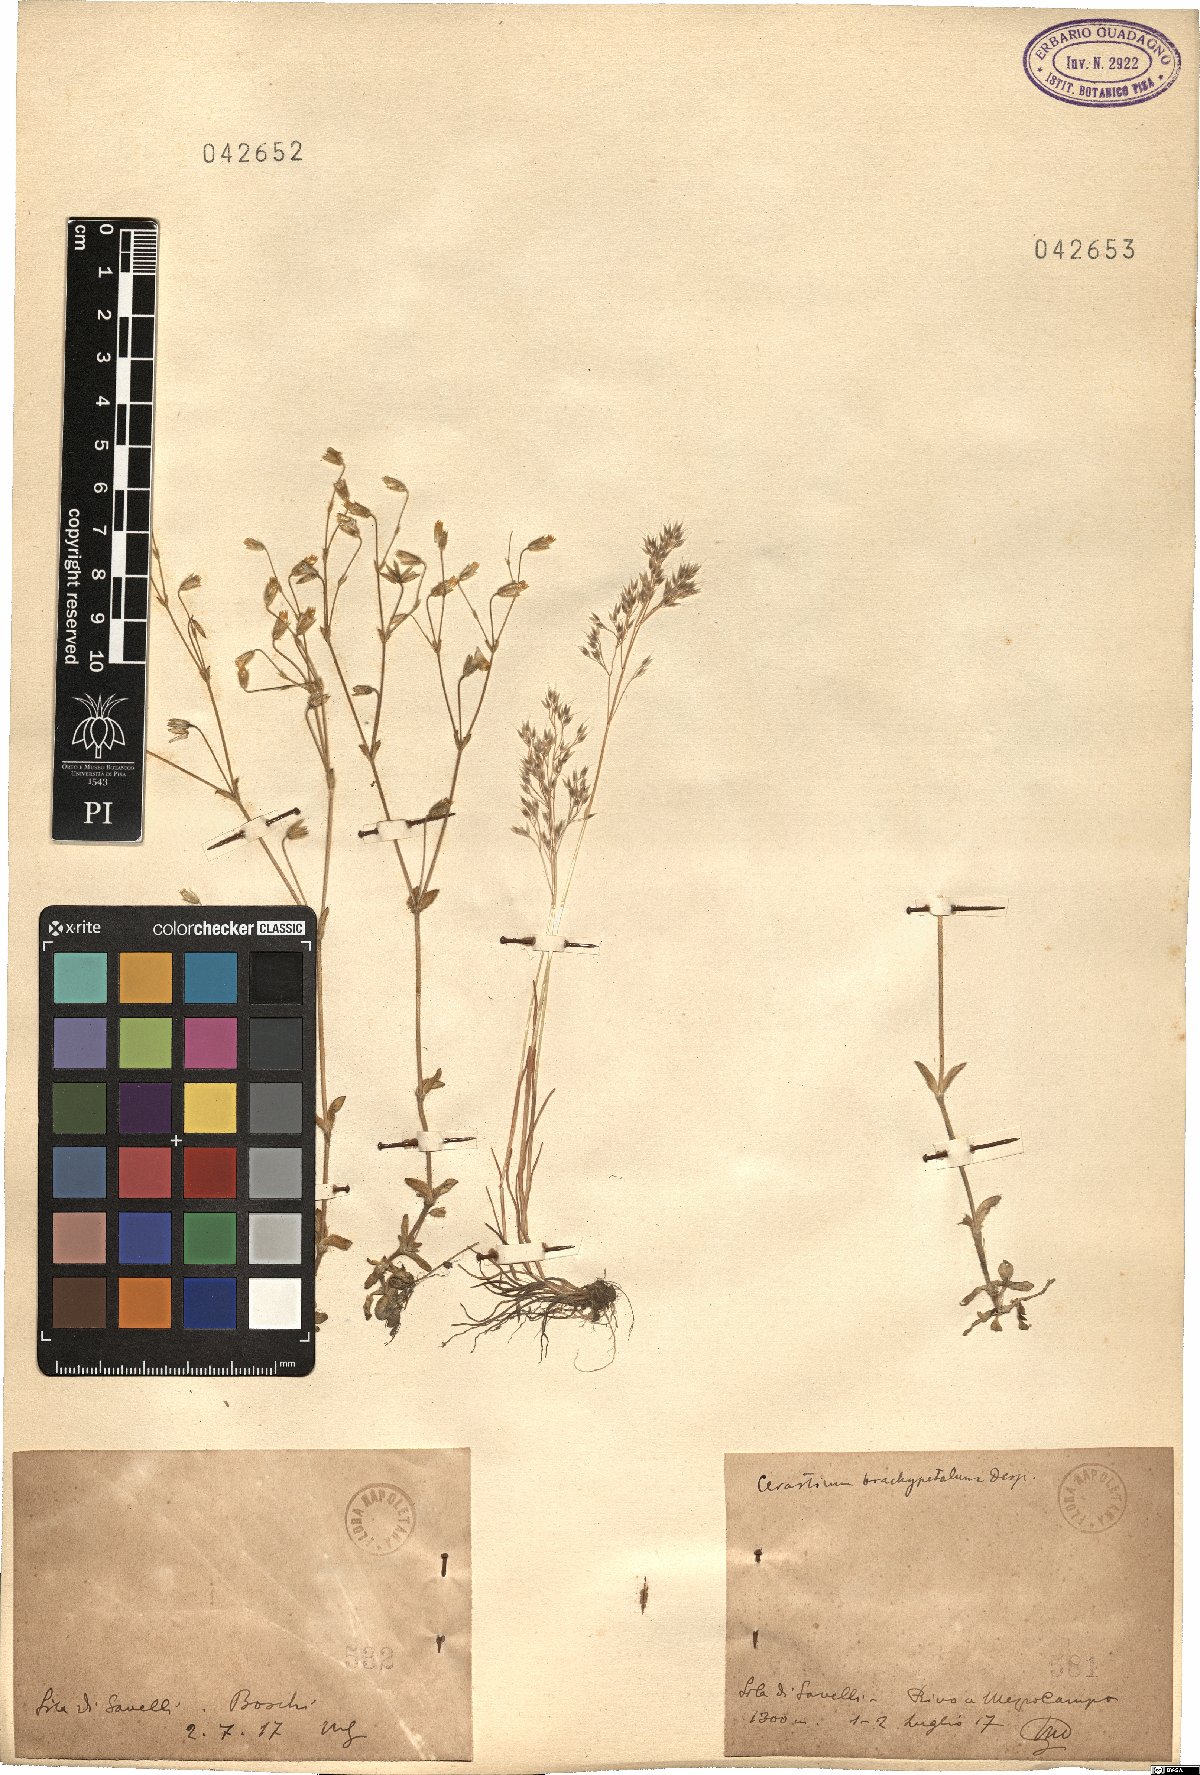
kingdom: Plantae
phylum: Tracheophyta
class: Magnoliopsida
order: Caryophyllales
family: Caryophyllaceae
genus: Cerastium
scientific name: Cerastium brachypetalum
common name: Grey mouse-ear
